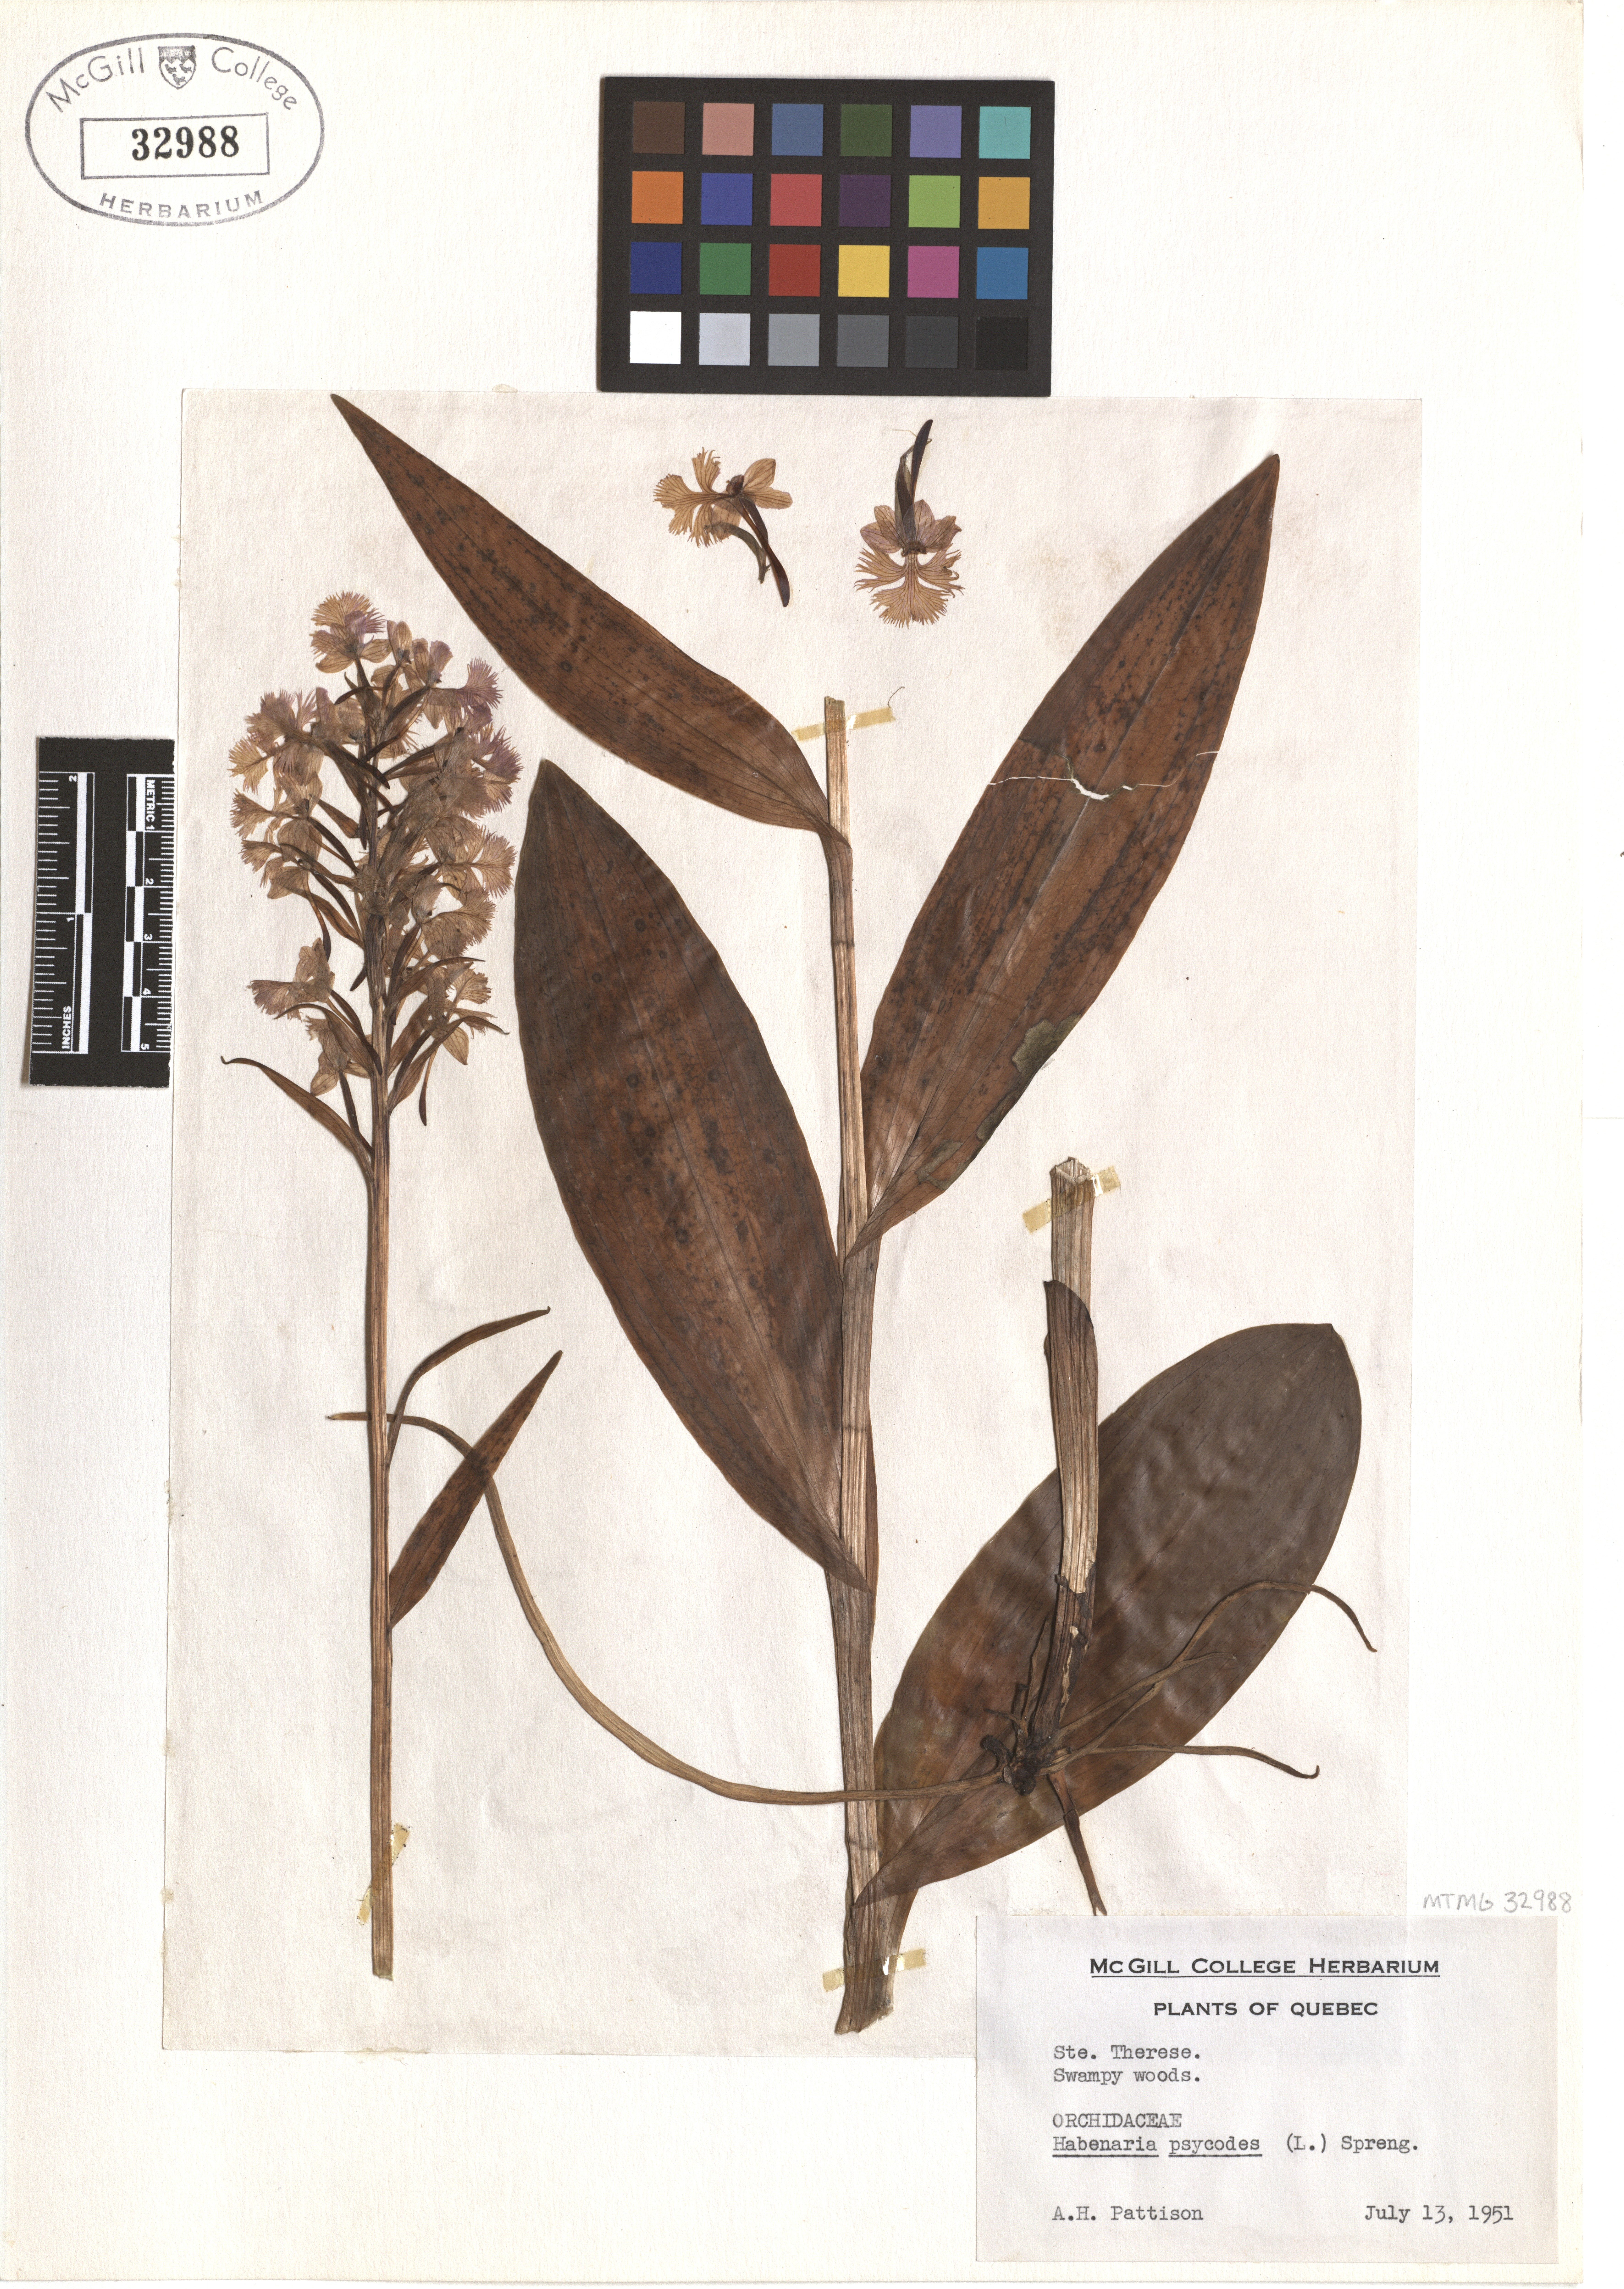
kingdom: Plantae
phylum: Tracheophyta
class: Liliopsida
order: Asparagales
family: Orchidaceae
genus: Platanthera
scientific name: Platanthera psycodes
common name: Lesser purple fringed orchid
